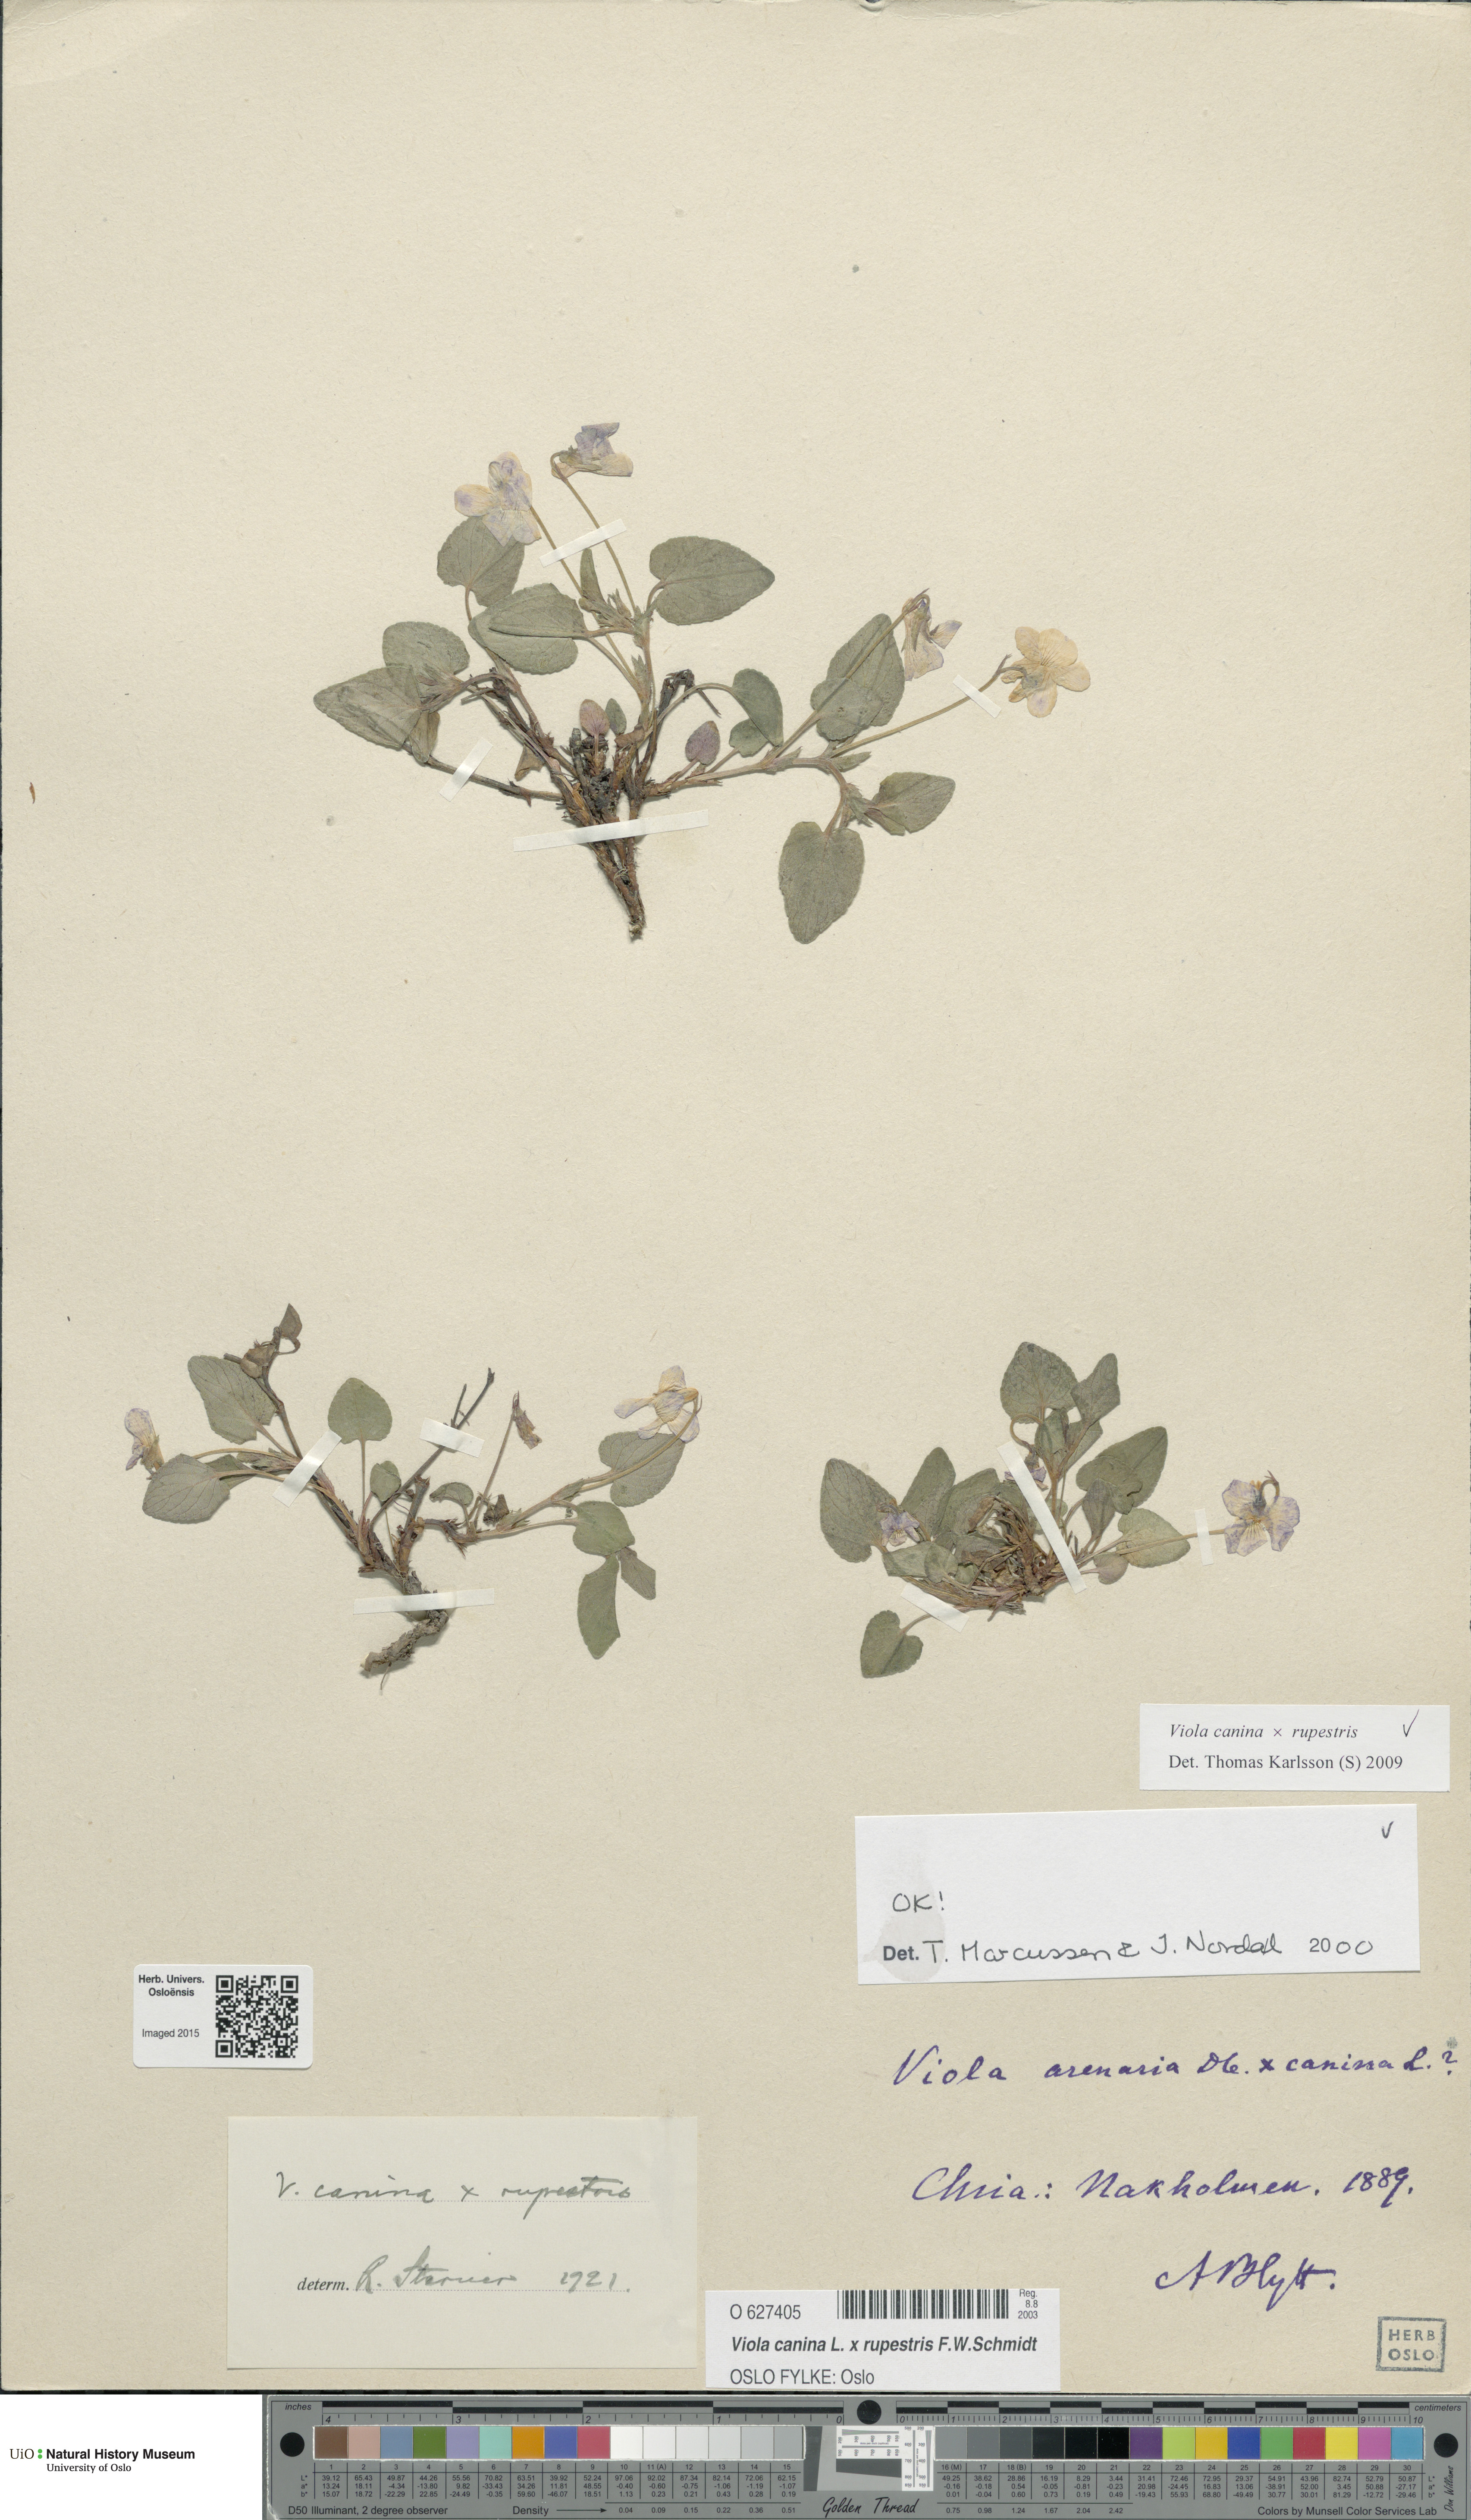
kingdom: Plantae
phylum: Tracheophyta
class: Magnoliopsida
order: Malpighiales
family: Violaceae
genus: Viola
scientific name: Viola
